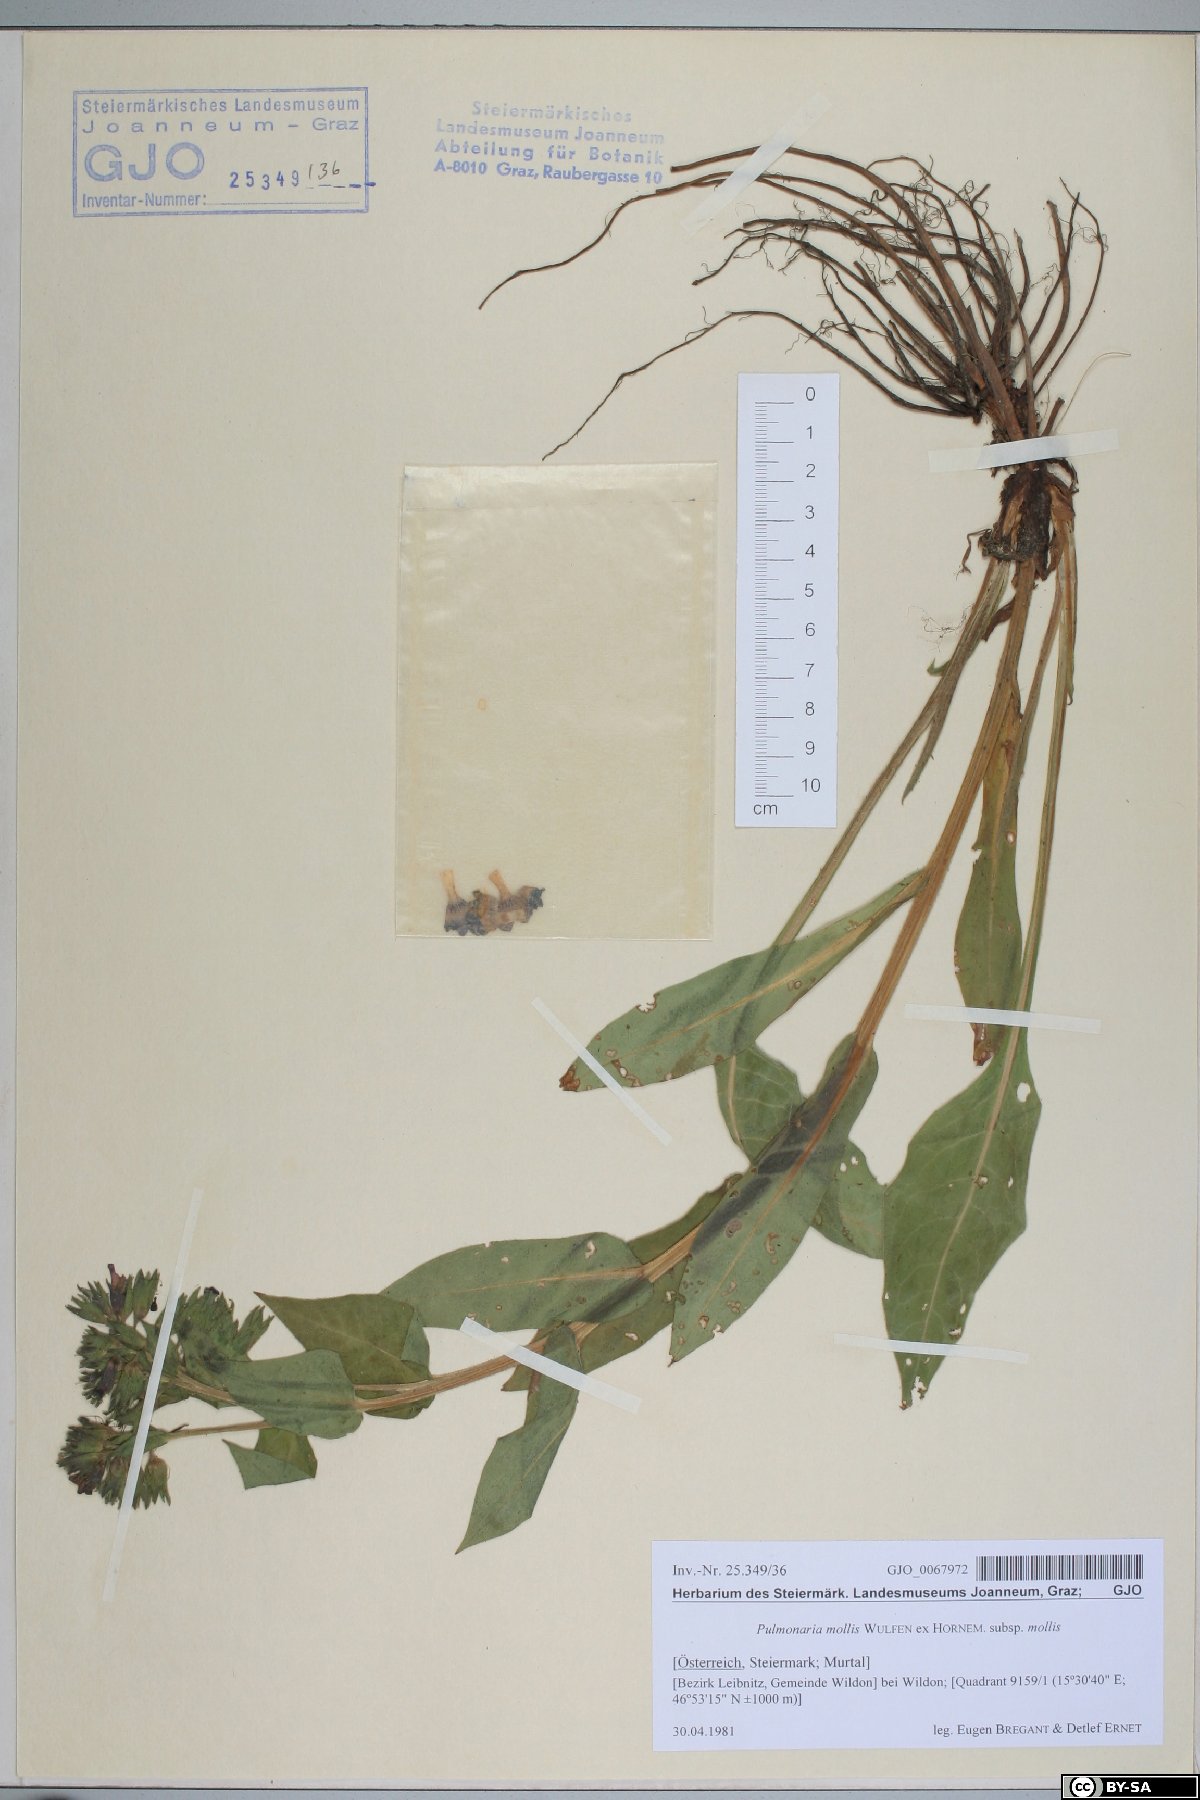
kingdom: Plantae
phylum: Tracheophyta
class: Magnoliopsida
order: Boraginales
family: Boraginaceae
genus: Pulmonaria
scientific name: Pulmonaria mollis
